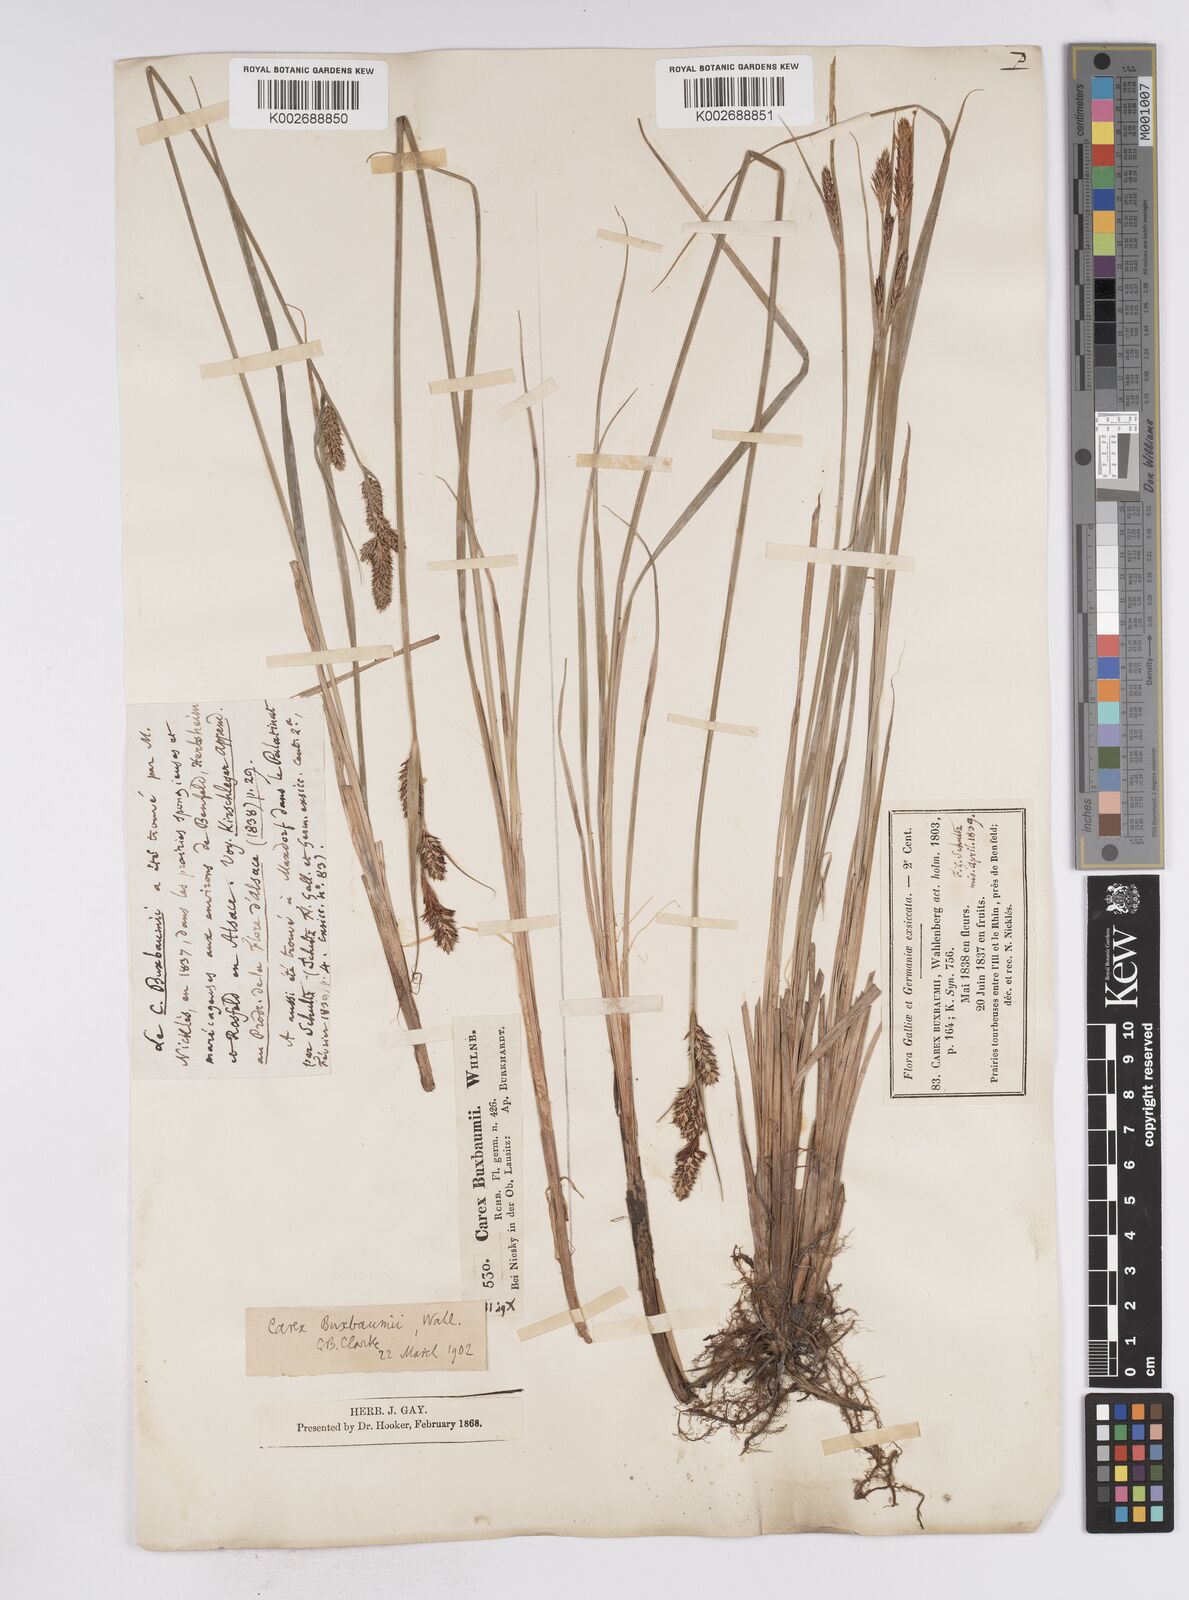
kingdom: Plantae
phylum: Tracheophyta
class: Liliopsida
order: Poales
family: Cyperaceae
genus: Carex
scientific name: Carex buxbaumii
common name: Club sedge
